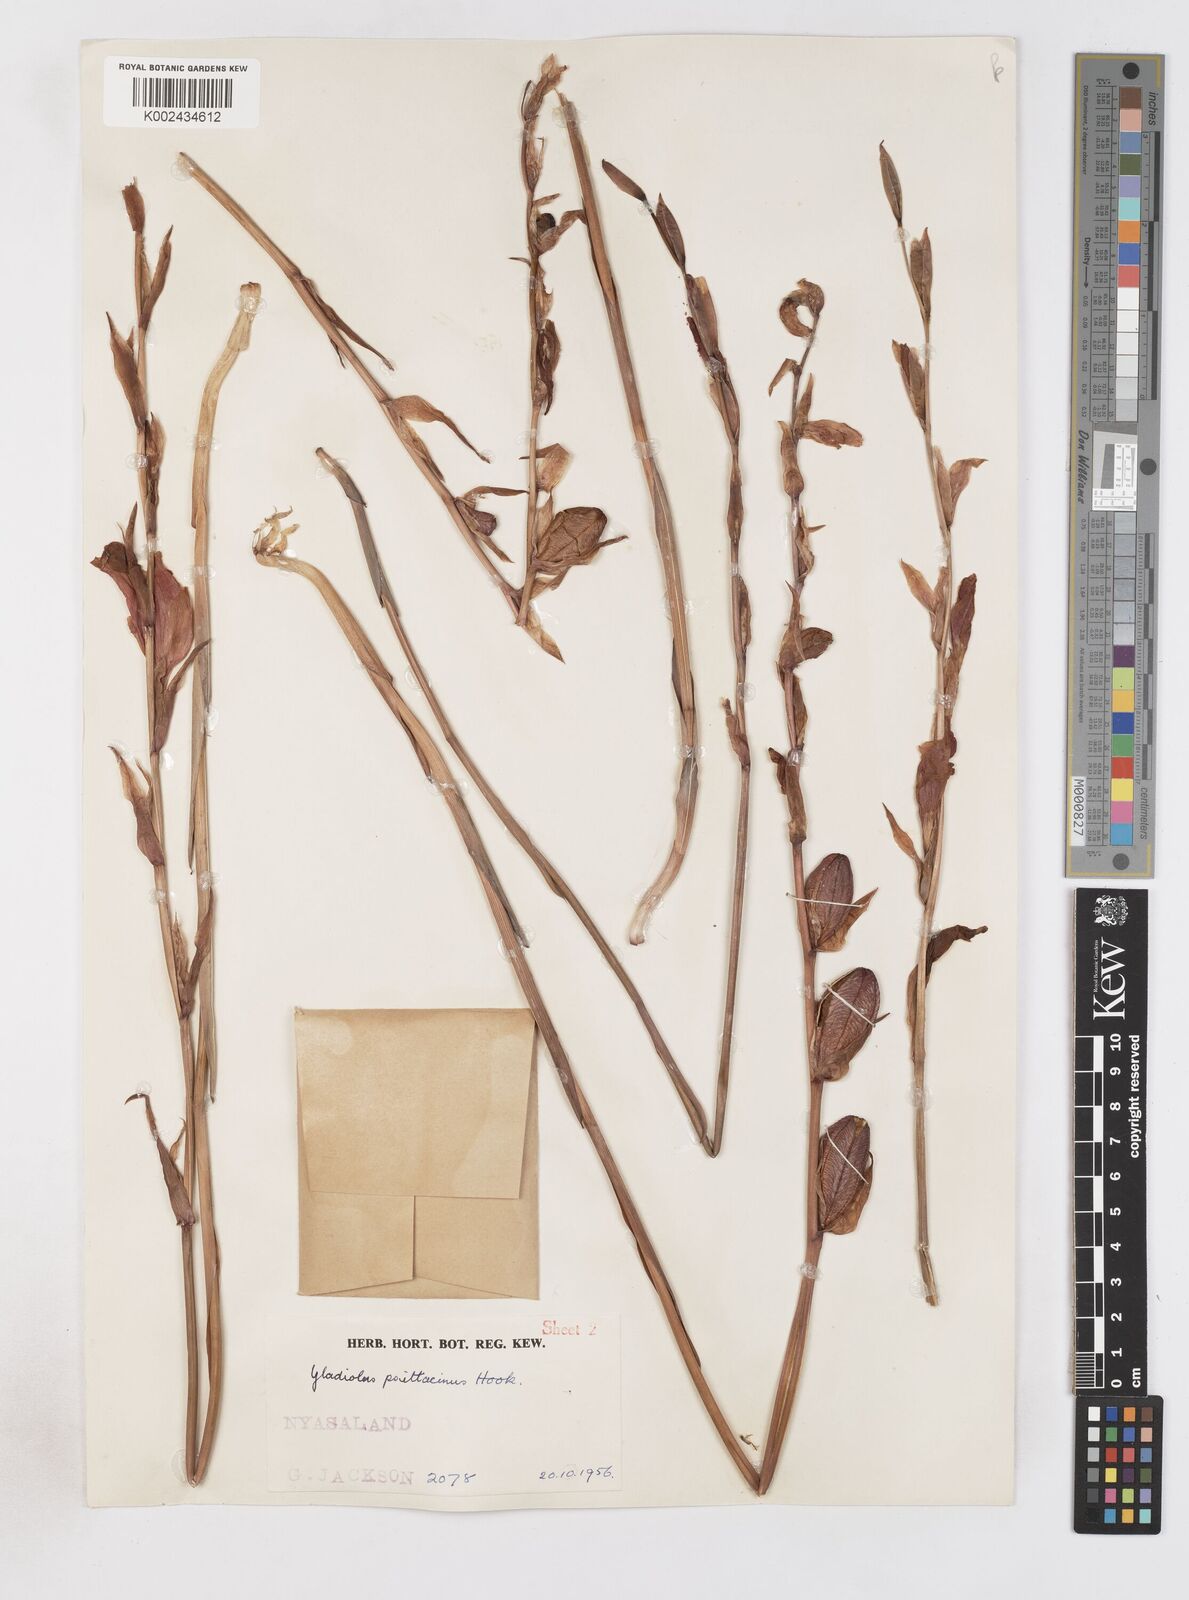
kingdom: Plantae
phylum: Tracheophyta
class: Liliopsida
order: Asparagales
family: Iridaceae
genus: Gladiolus
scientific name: Gladiolus melleri
